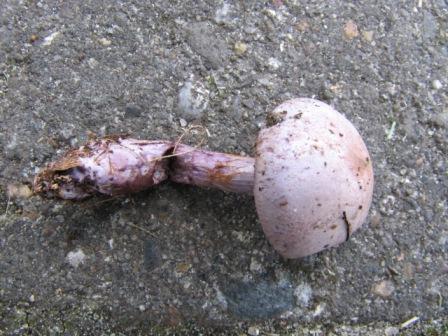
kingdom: Fungi
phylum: Basidiomycota
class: Agaricomycetes
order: Agaricales
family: Cortinariaceae
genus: Thaxterogaster
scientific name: Thaxterogaster subporphyropus
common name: ametyst-slørhat
